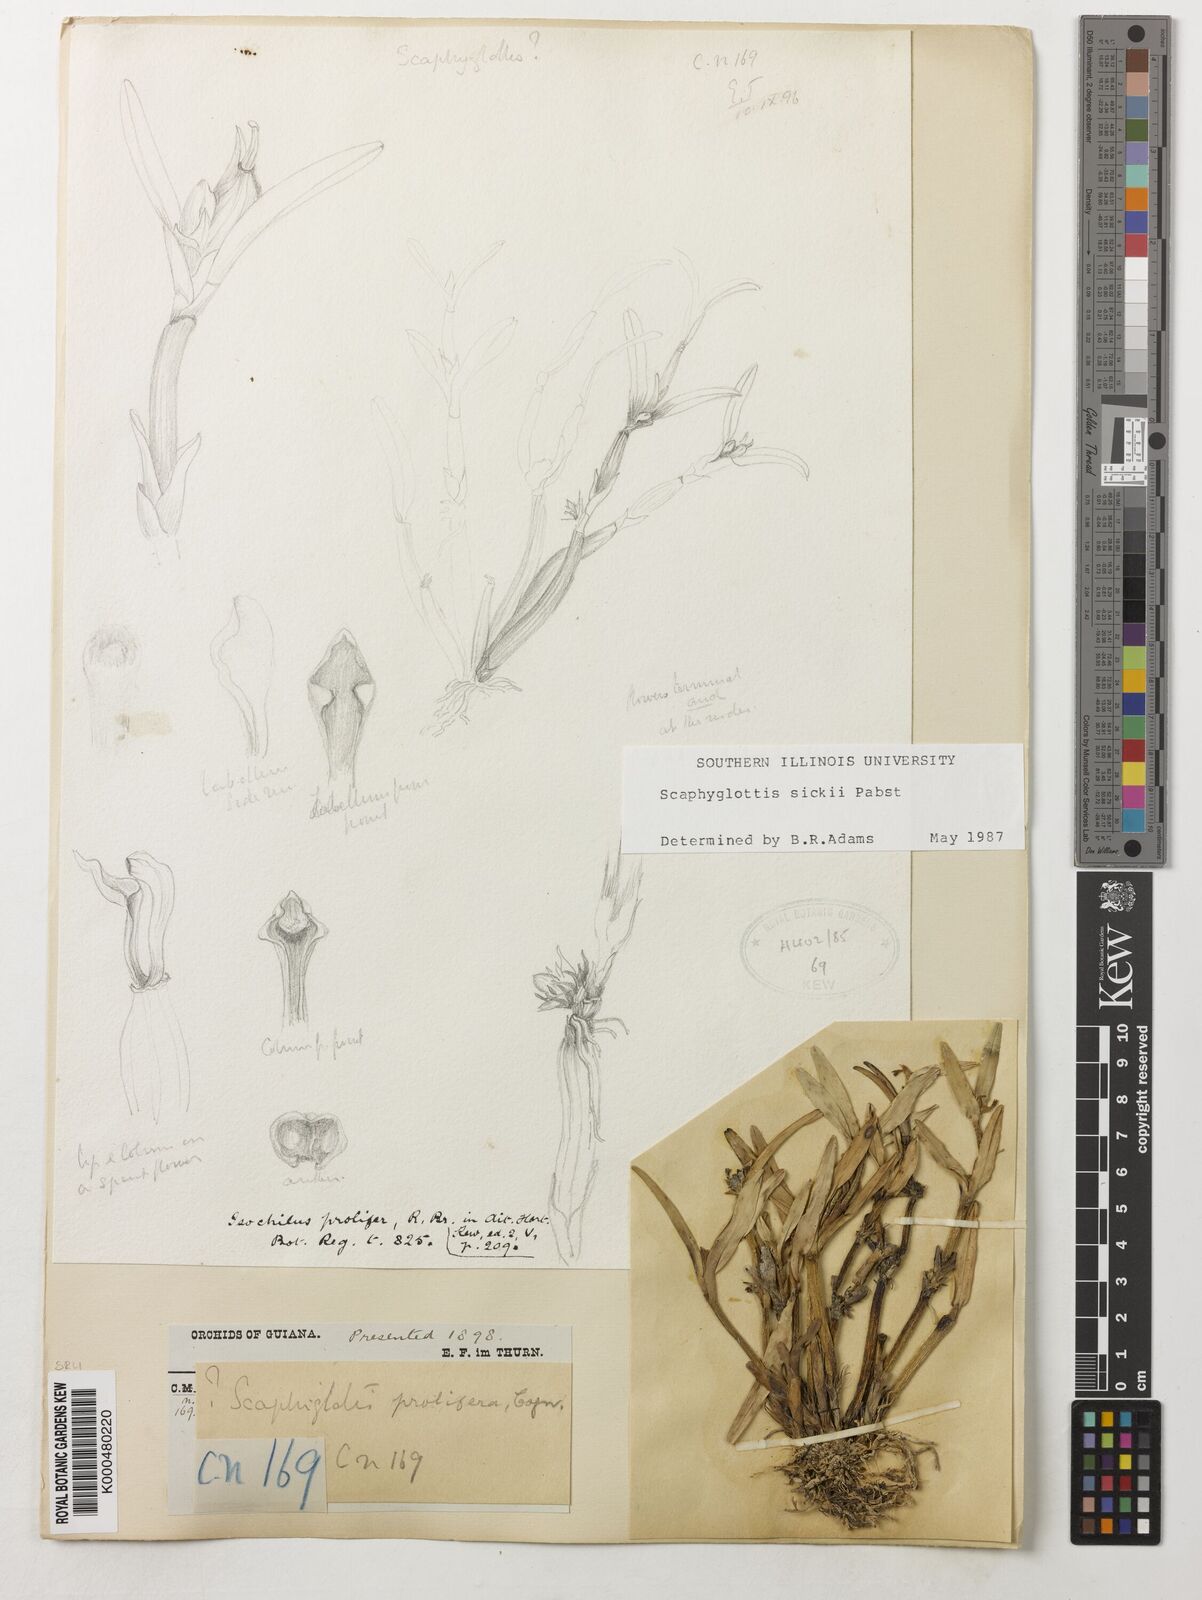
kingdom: Plantae
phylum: Tracheophyta
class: Liliopsida
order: Asparagales
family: Orchidaceae
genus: Scaphyglottis
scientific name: Scaphyglottis sickii
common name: Sicks scaphyglottis
